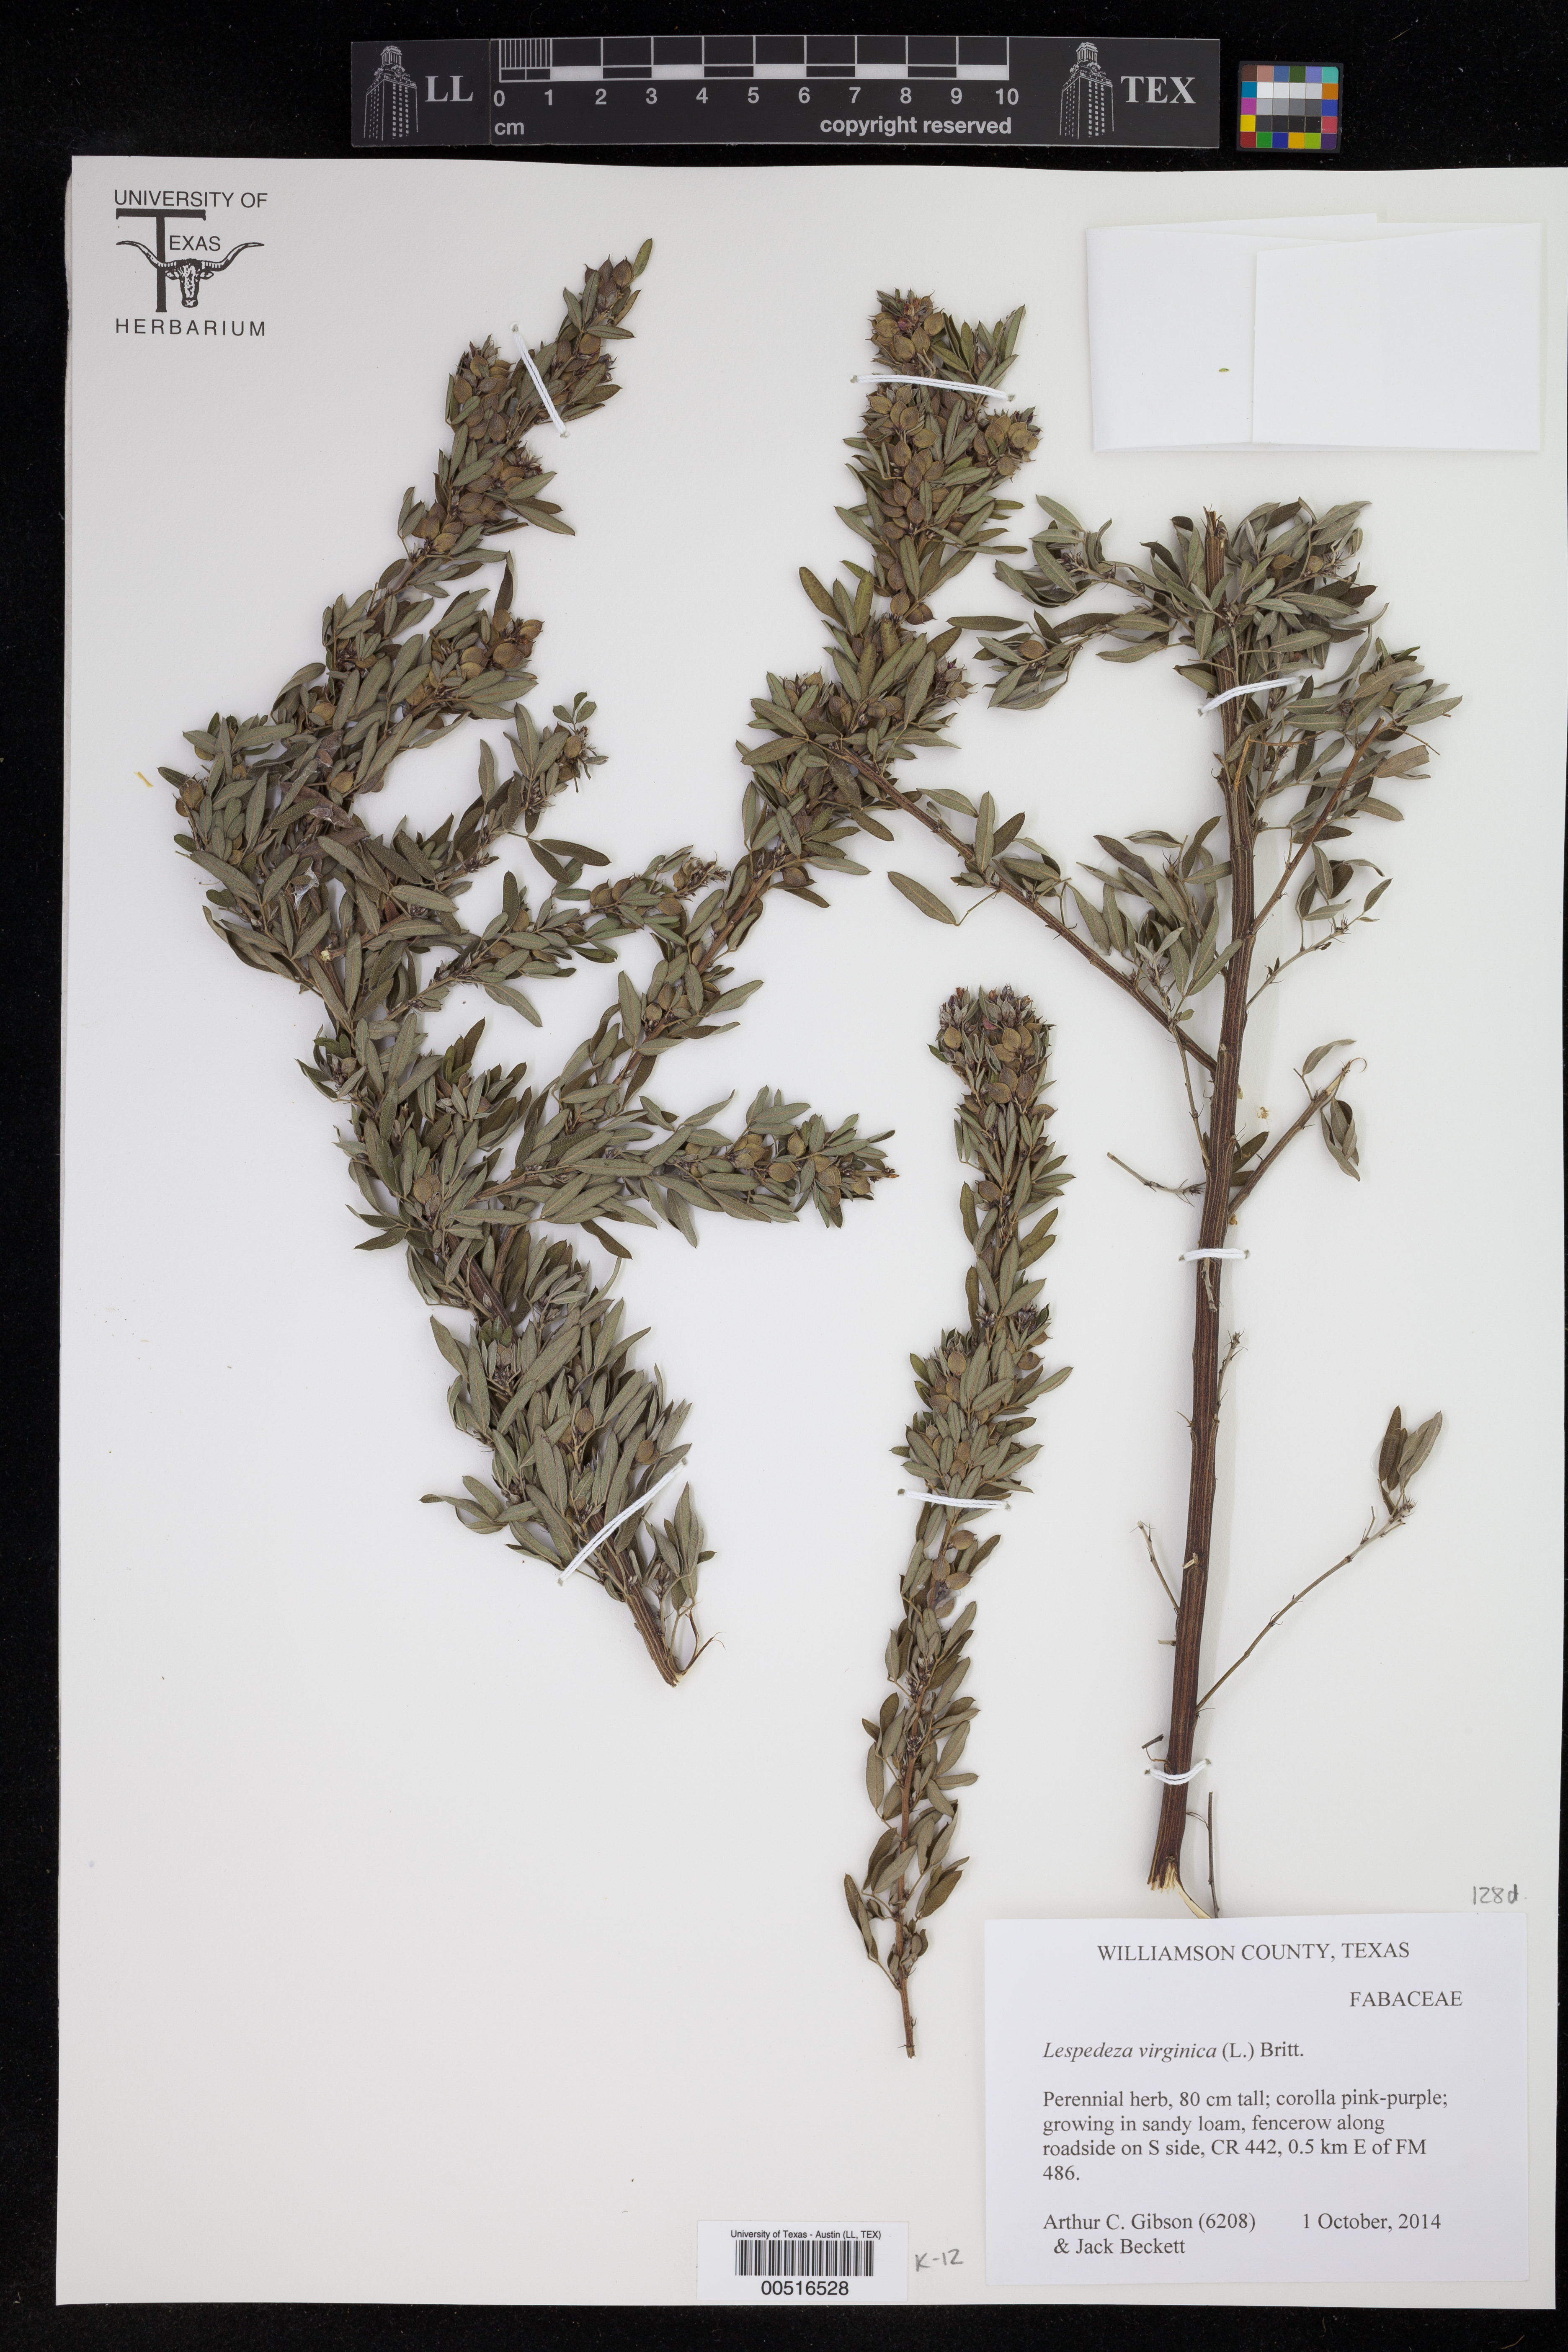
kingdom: Plantae
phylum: Tracheophyta
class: Magnoliopsida
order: Fabales
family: Fabaceae
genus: Lespedeza
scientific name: Lespedeza virginica
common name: Slender bush-clover
